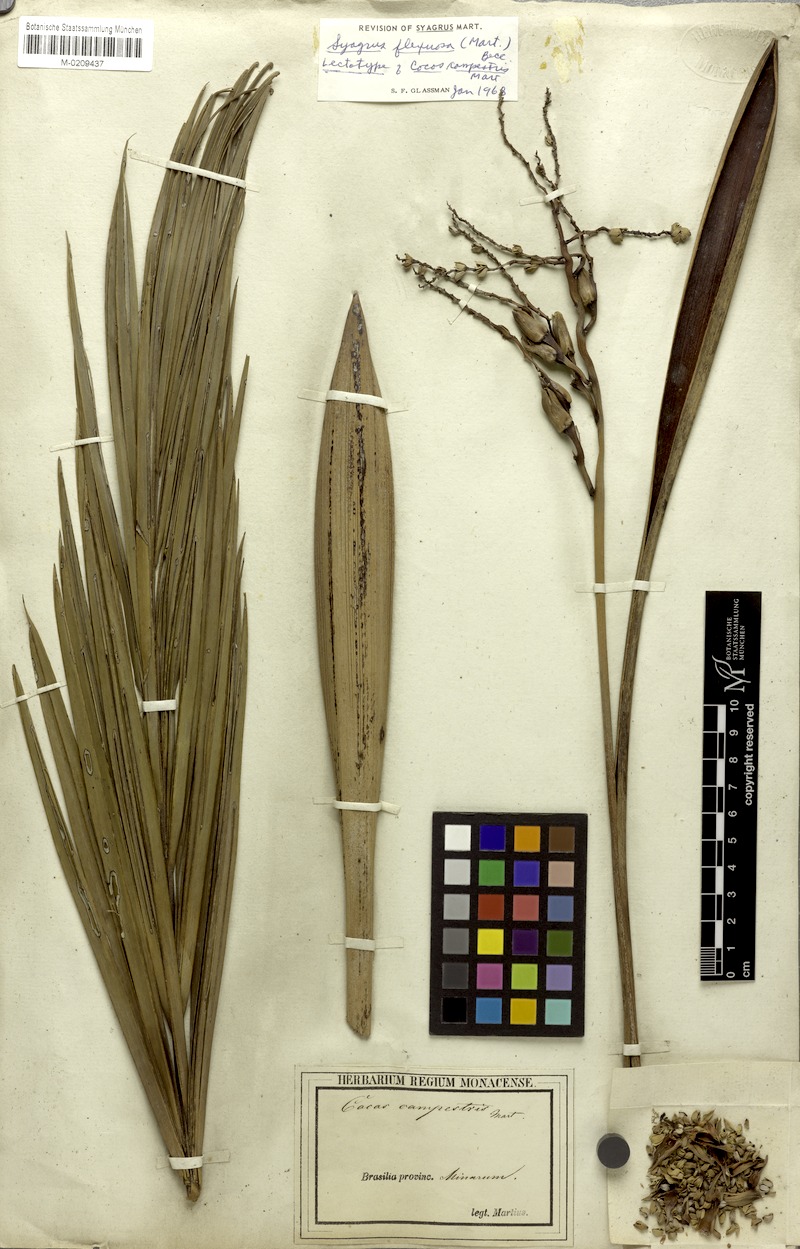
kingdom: Plantae
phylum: Tracheophyta
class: Liliopsida
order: Arecales
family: Arecaceae
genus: Syagrus
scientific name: Syagrus flexuosa
